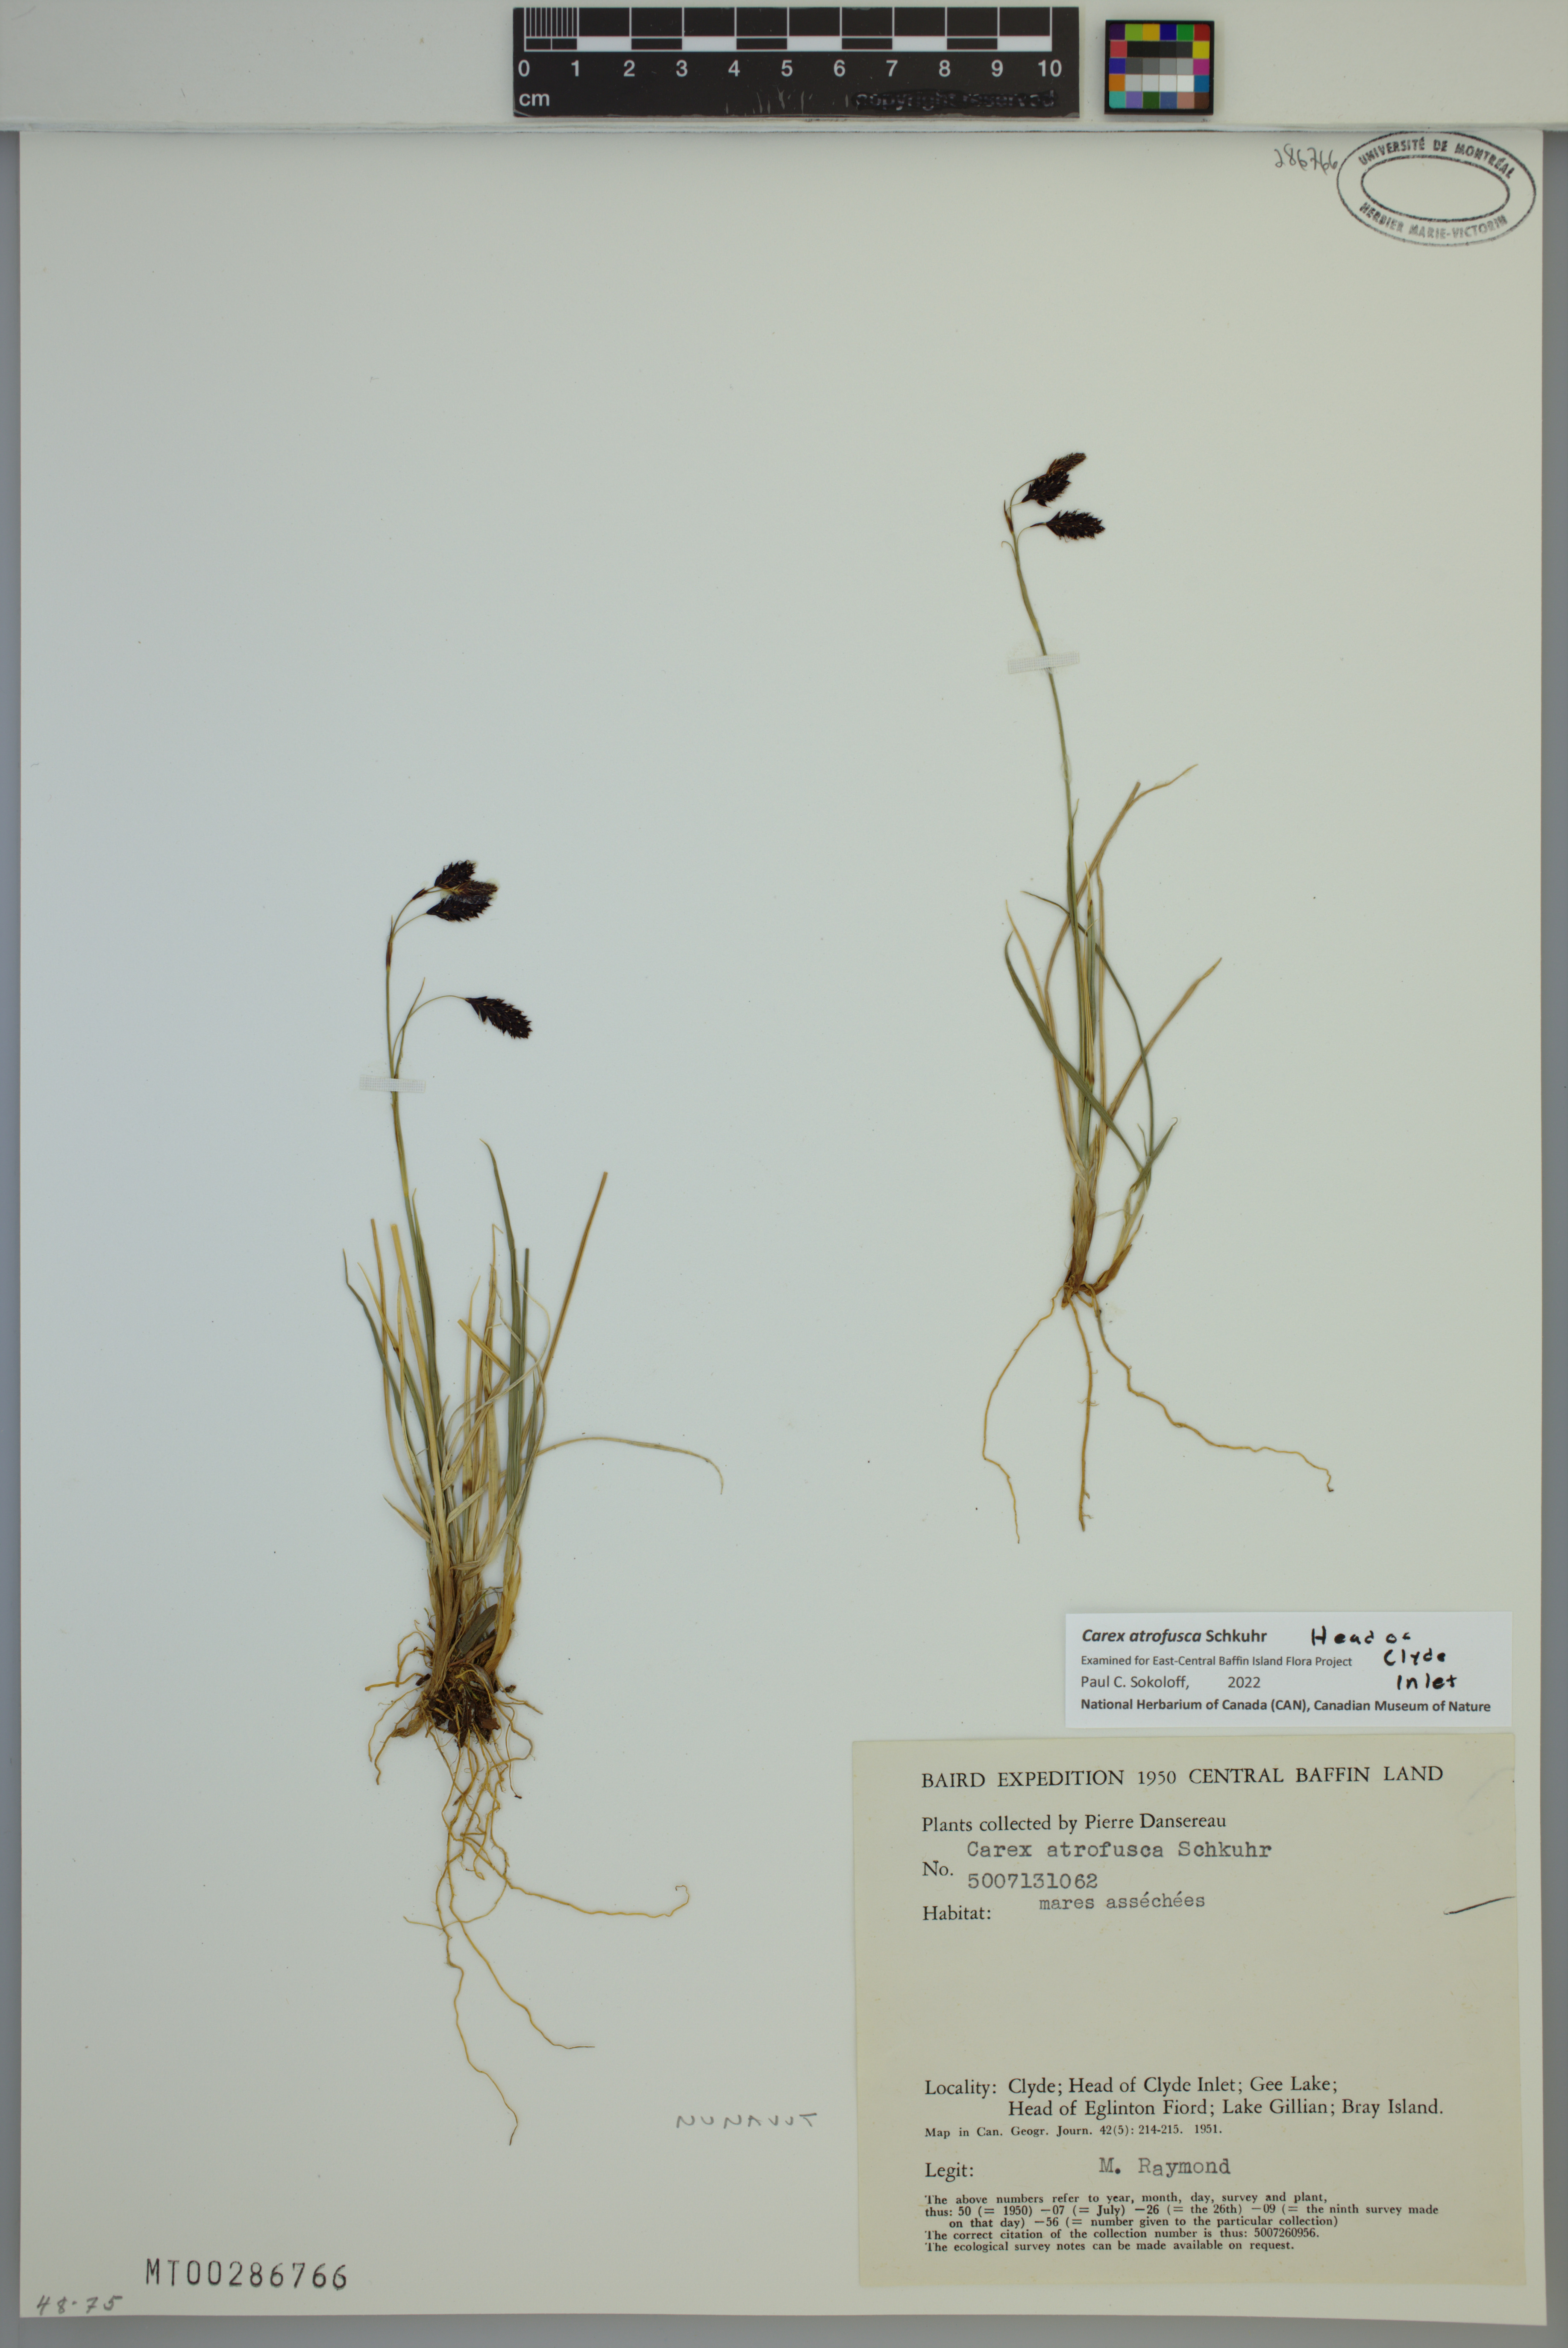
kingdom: Plantae
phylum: Tracheophyta
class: Liliopsida
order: Poales
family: Cyperaceae
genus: Carex
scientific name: Carex atrofusca
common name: Scorched alpine-sedge
